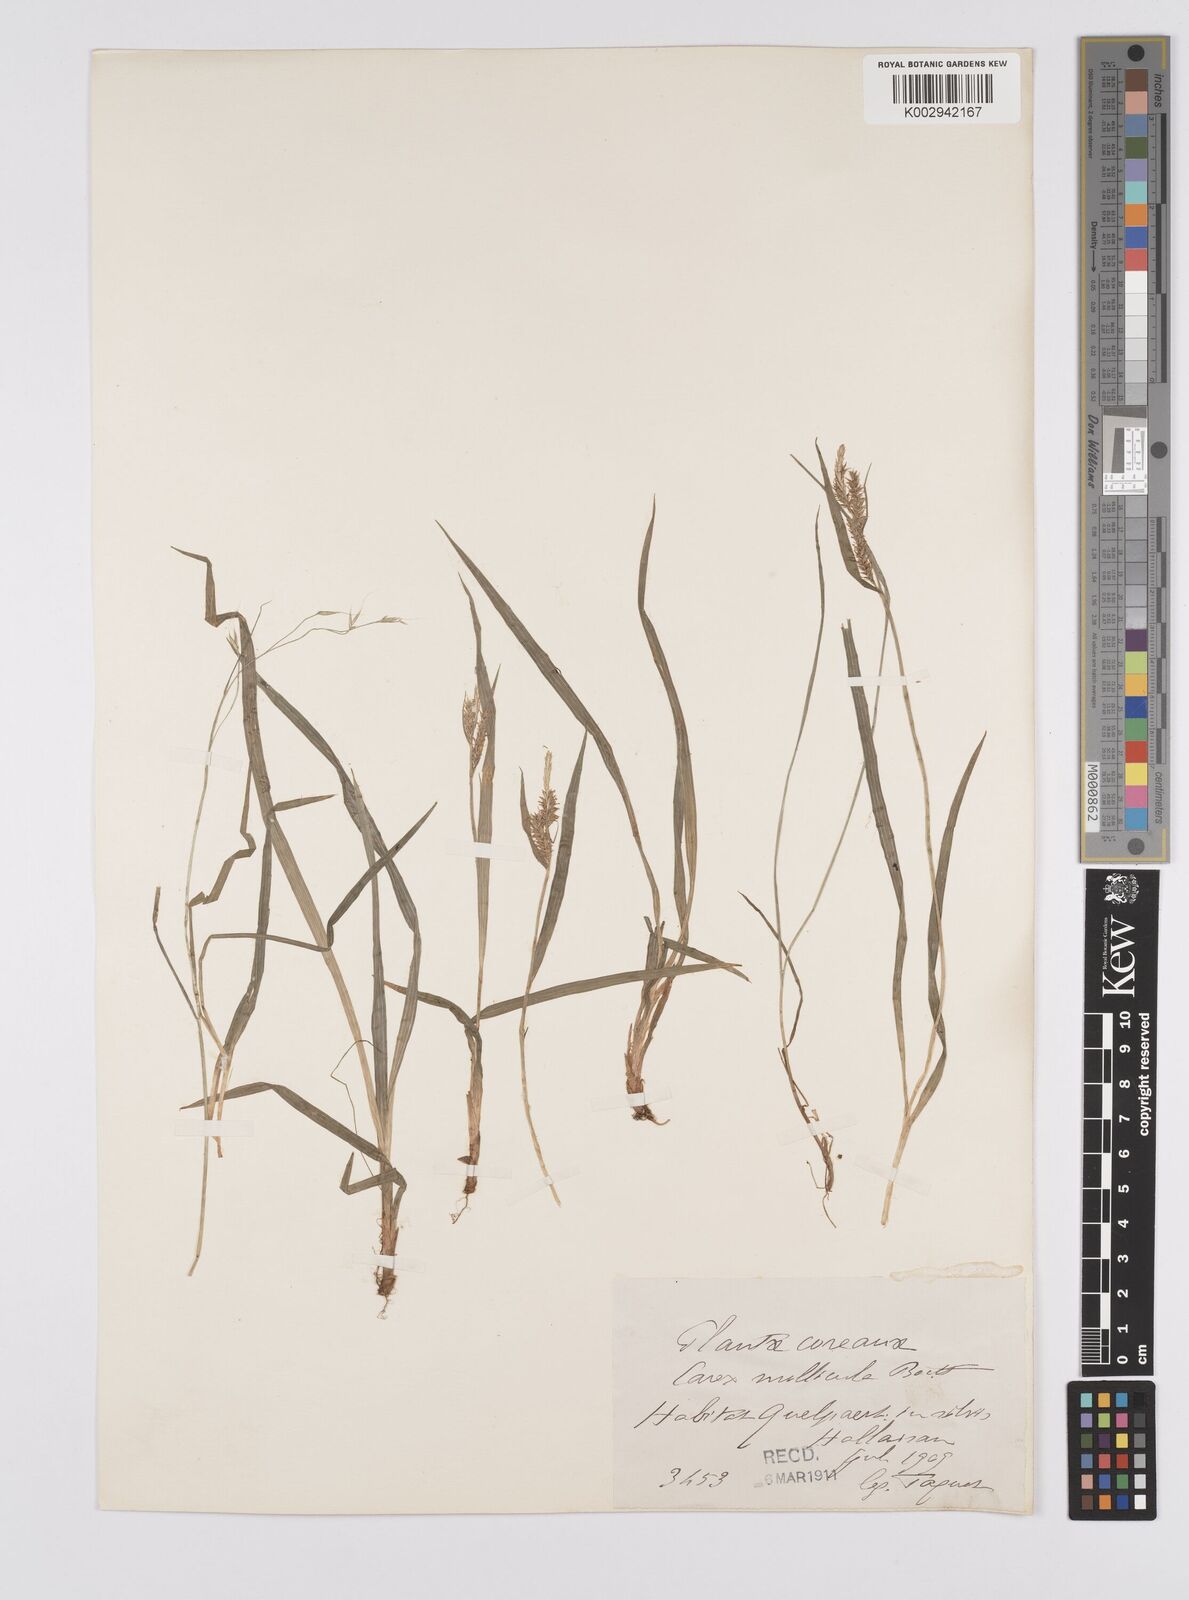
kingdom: Plantae
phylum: Tracheophyta
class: Liliopsida
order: Poales
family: Cyperaceae
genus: Carex
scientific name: Carex mollicula
